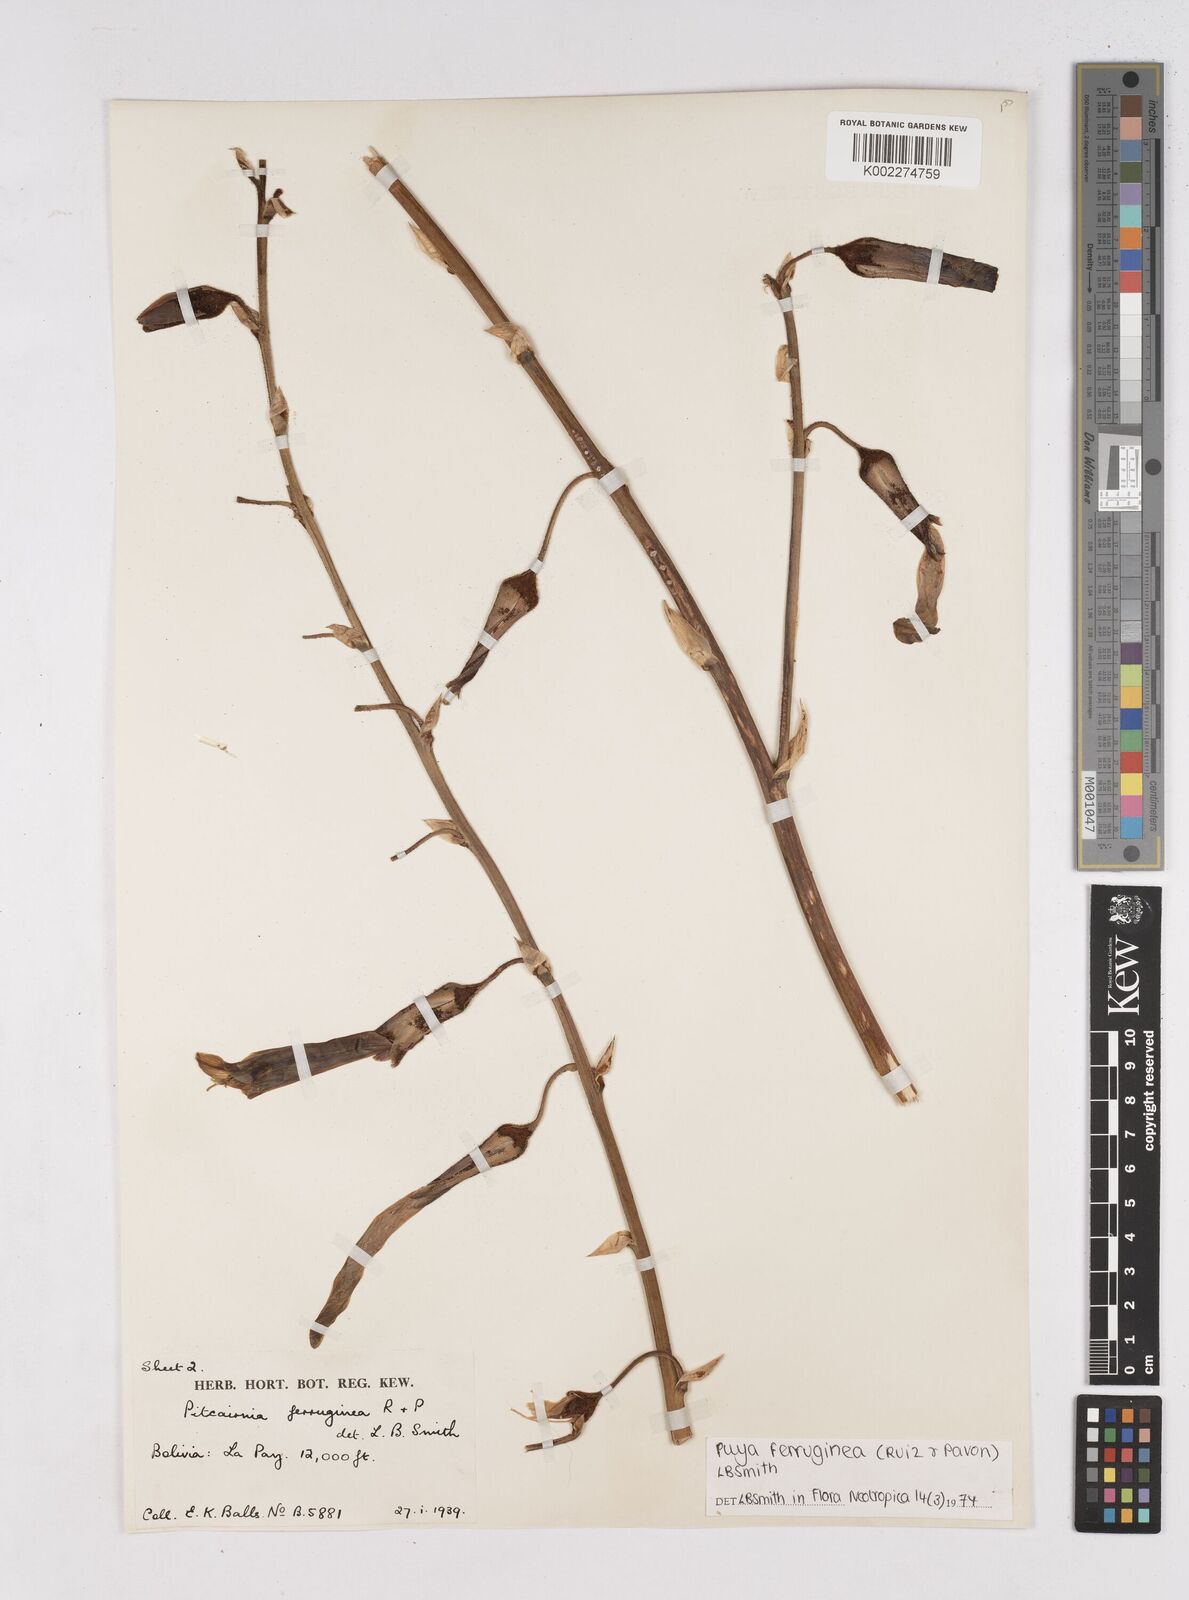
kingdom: Plantae
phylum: Tracheophyta
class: Liliopsida
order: Poales
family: Bromeliaceae
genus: Puya
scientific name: Puya ferruginea
